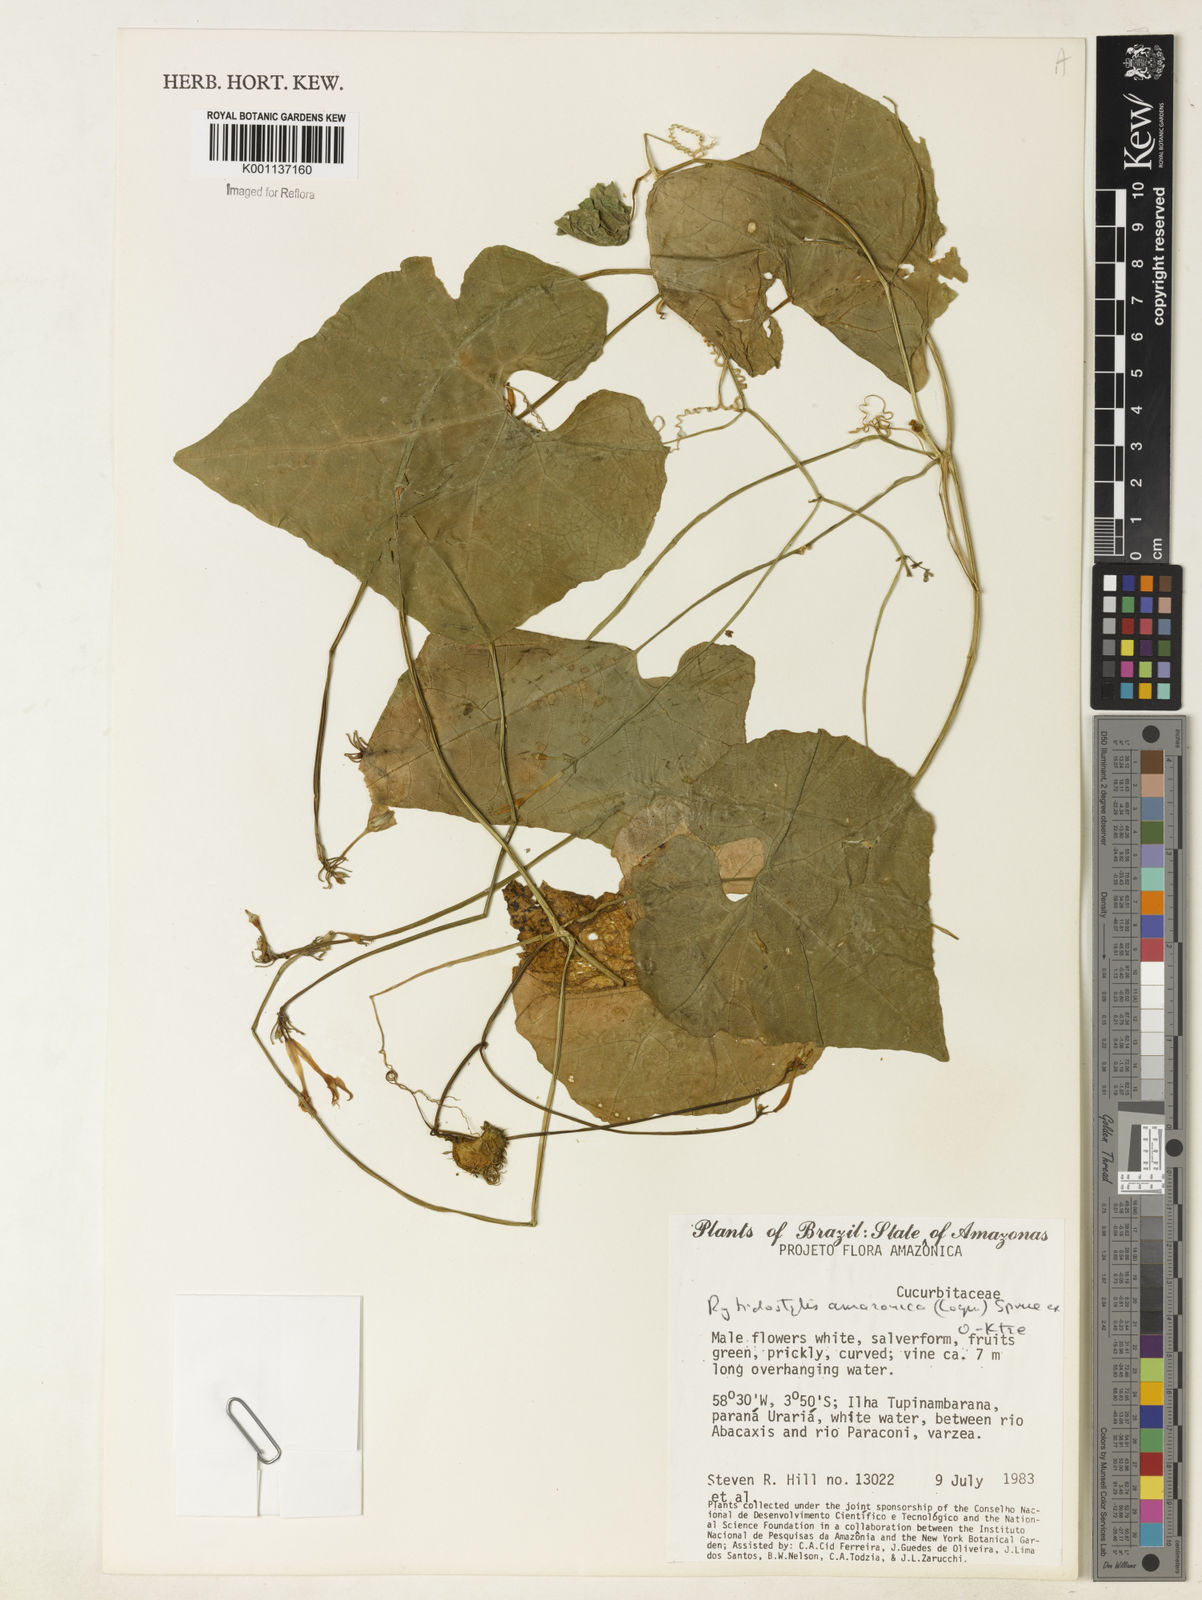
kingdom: Plantae
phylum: Tracheophyta
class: Magnoliopsida
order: Cucurbitales
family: Cucurbitaceae
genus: Cyclanthera
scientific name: Cyclanthera carthagenensis
